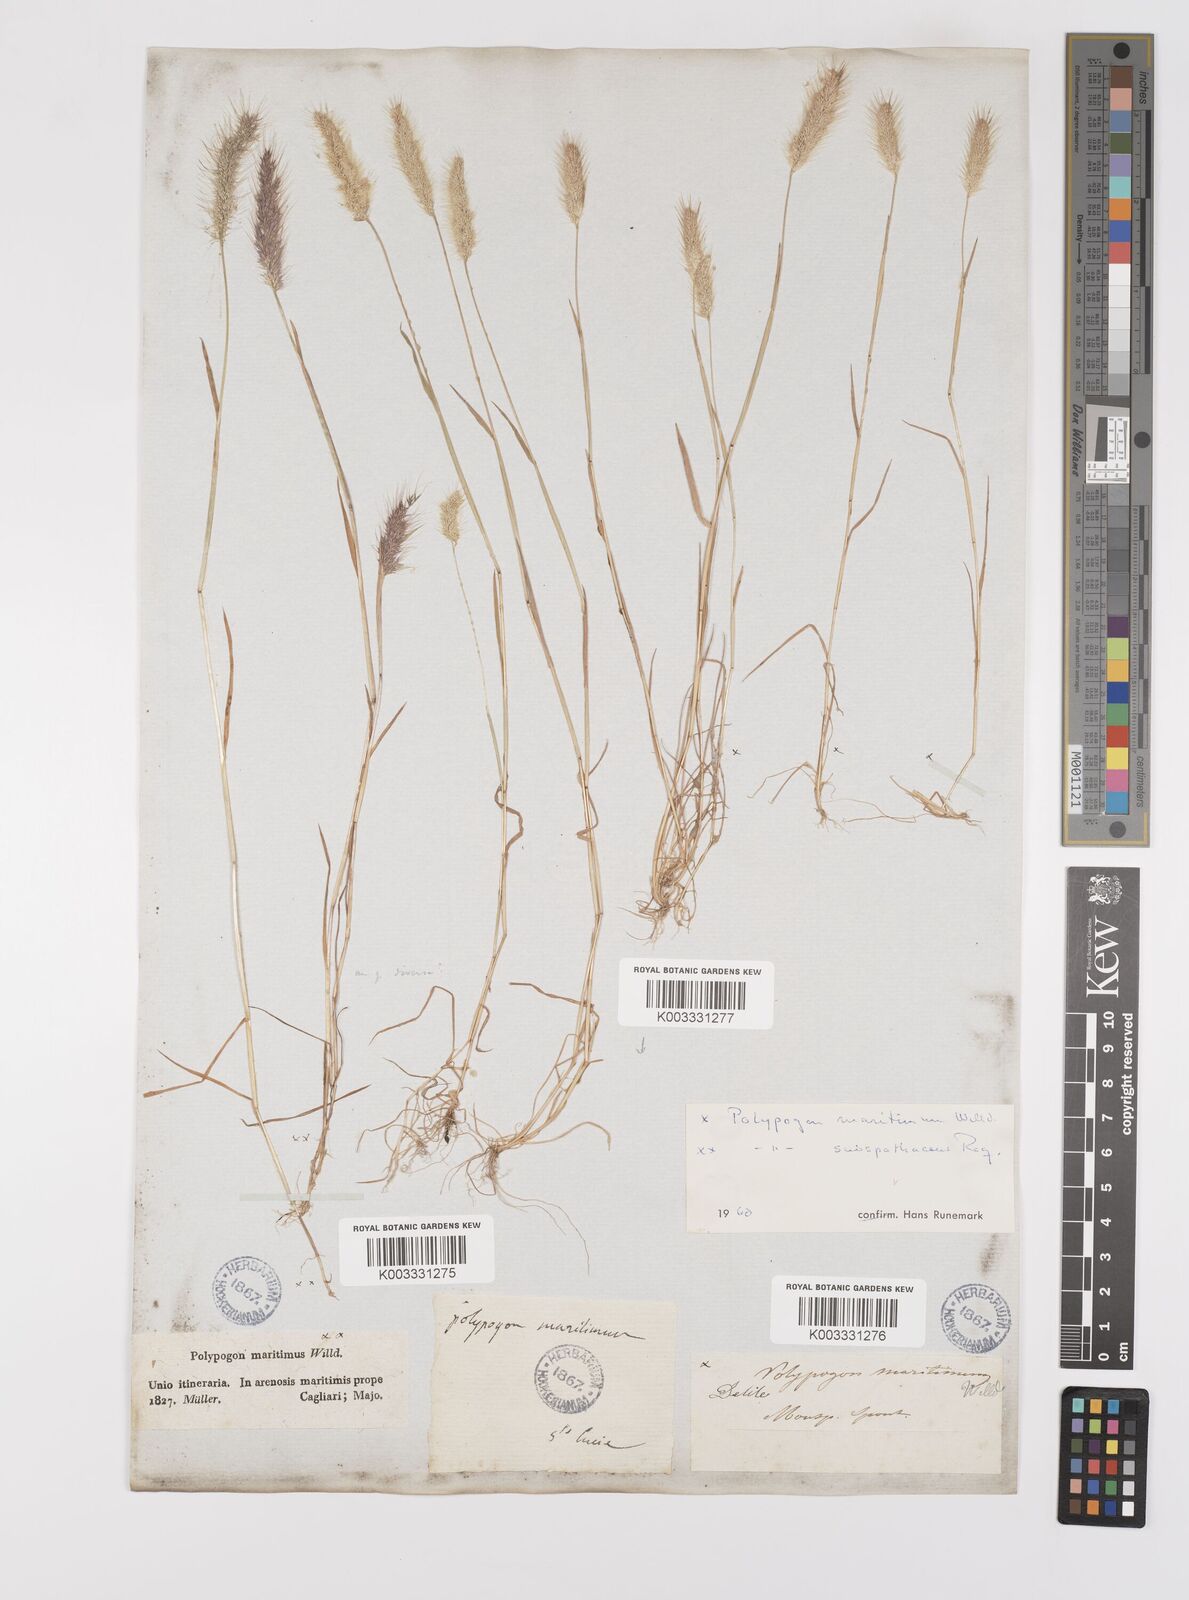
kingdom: Plantae
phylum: Tracheophyta
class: Liliopsida
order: Poales
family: Poaceae
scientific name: Poaceae
